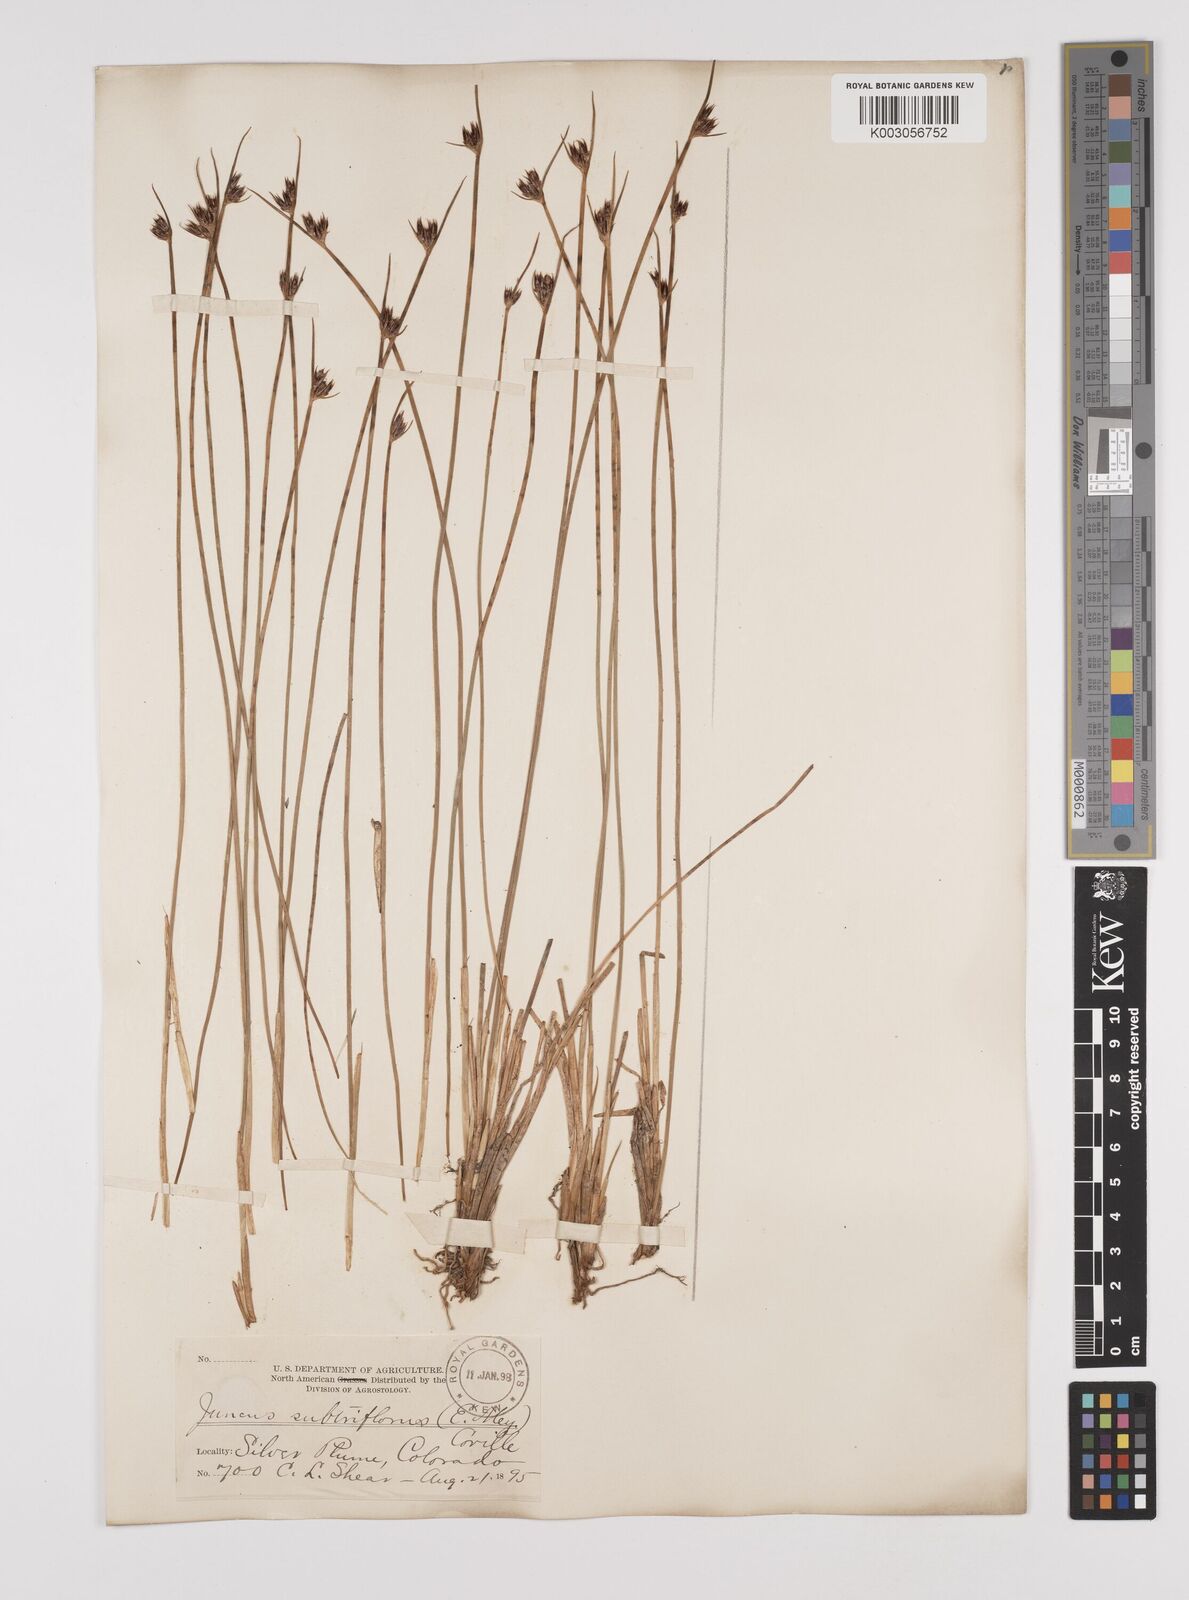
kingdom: Plantae
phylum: Tracheophyta
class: Liliopsida
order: Poales
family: Juncaceae
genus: Juncus
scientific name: Juncus drummondii
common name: Drummond's rush
